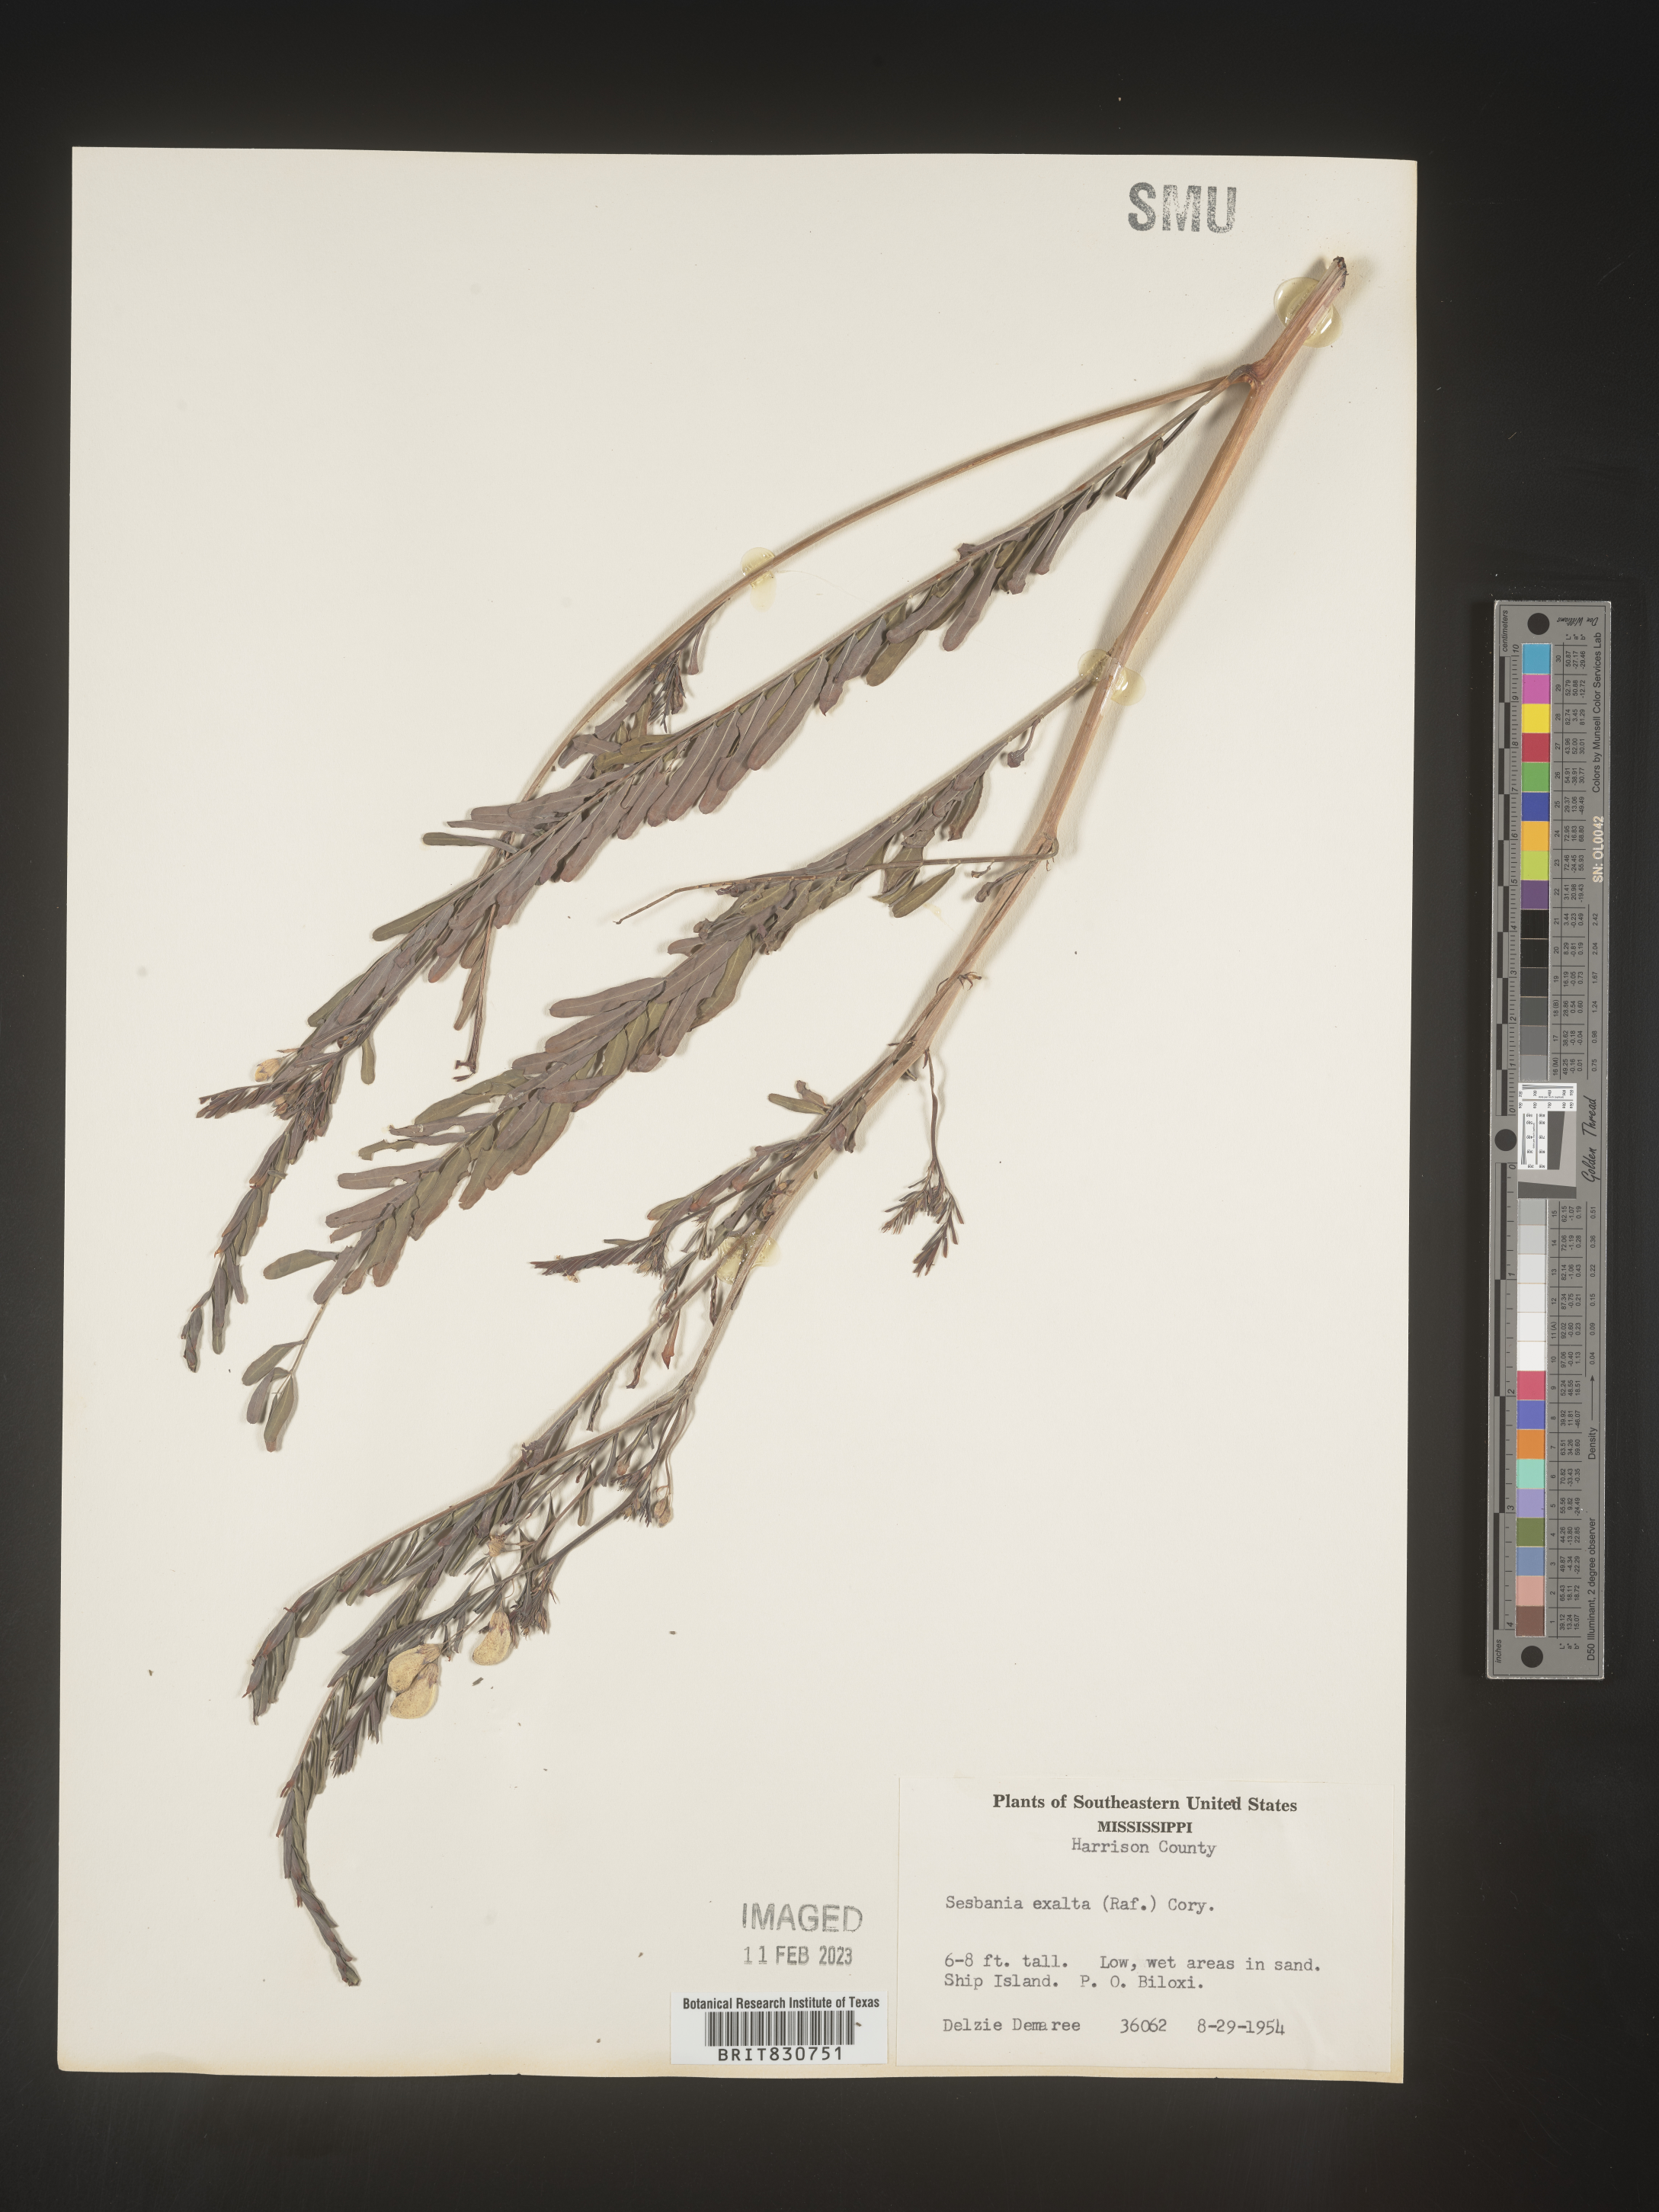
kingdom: Plantae
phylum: Tracheophyta
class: Magnoliopsida
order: Fabales
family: Fabaceae
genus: Sesbania
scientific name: Sesbania vesicaria
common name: Bagpod
